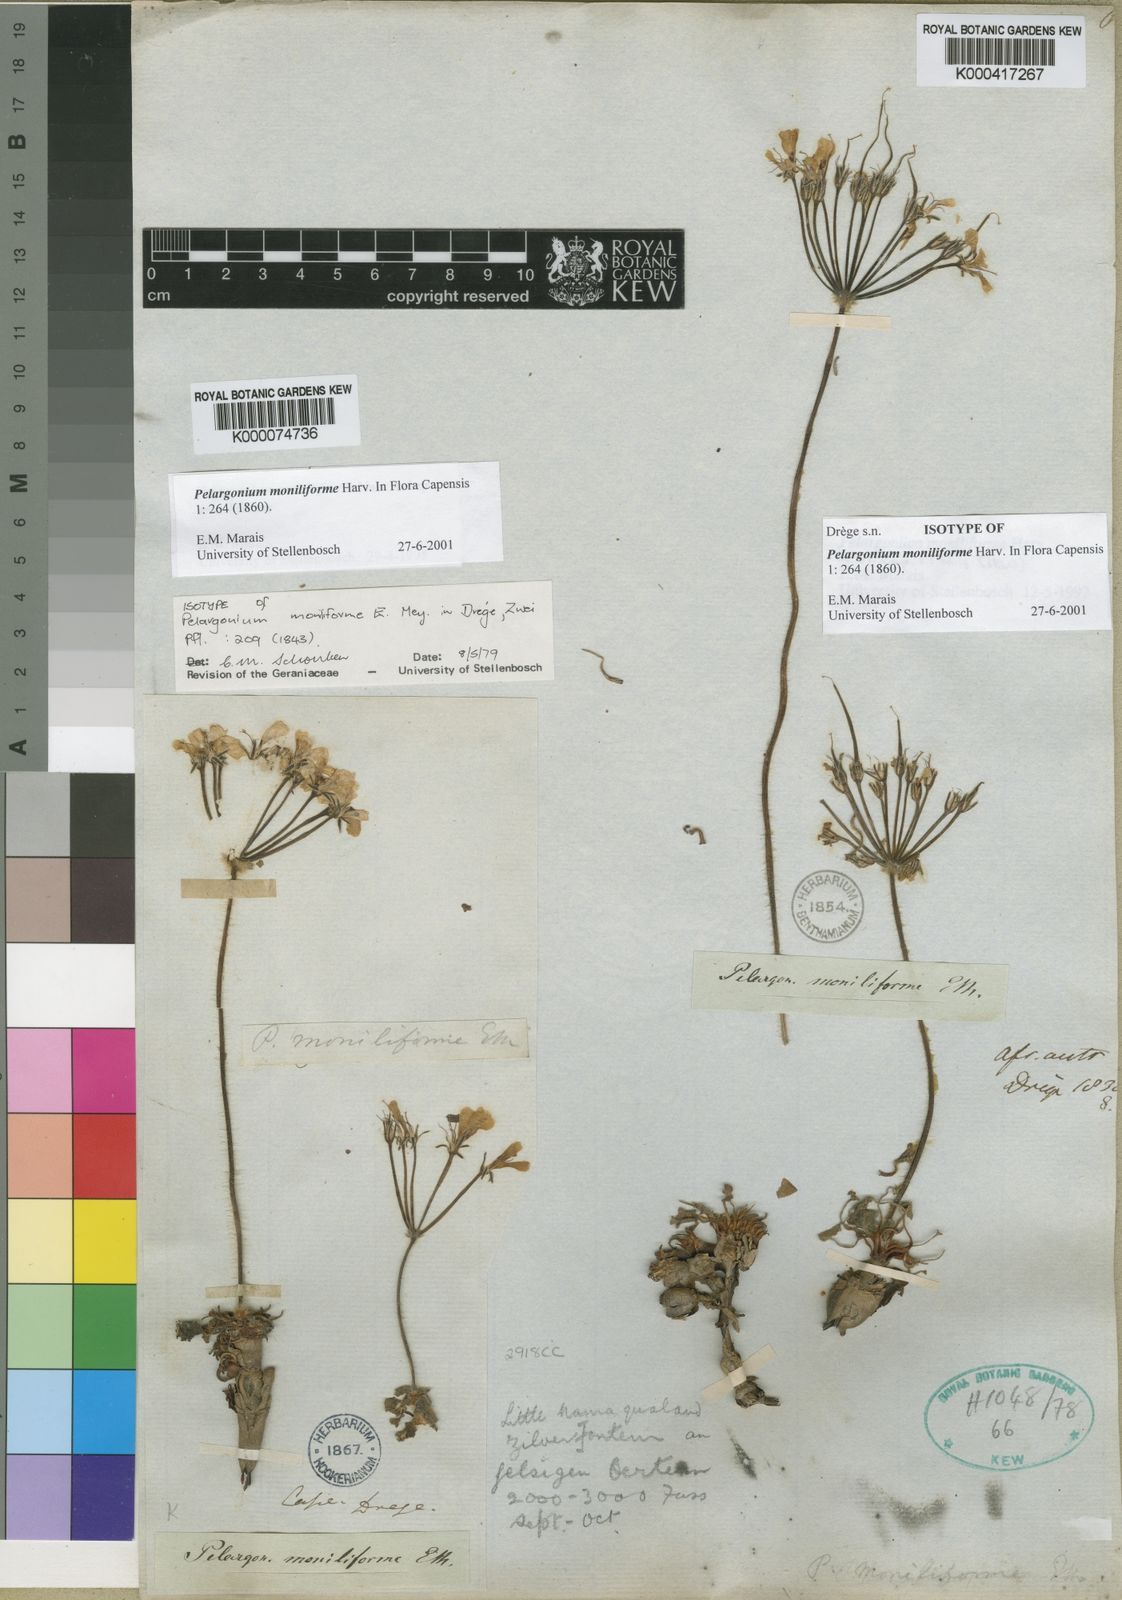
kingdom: Plantae
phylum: Tracheophyta
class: Magnoliopsida
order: Geraniales
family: Geraniaceae
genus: Pelargonium
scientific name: Pelargonium moniliforme
